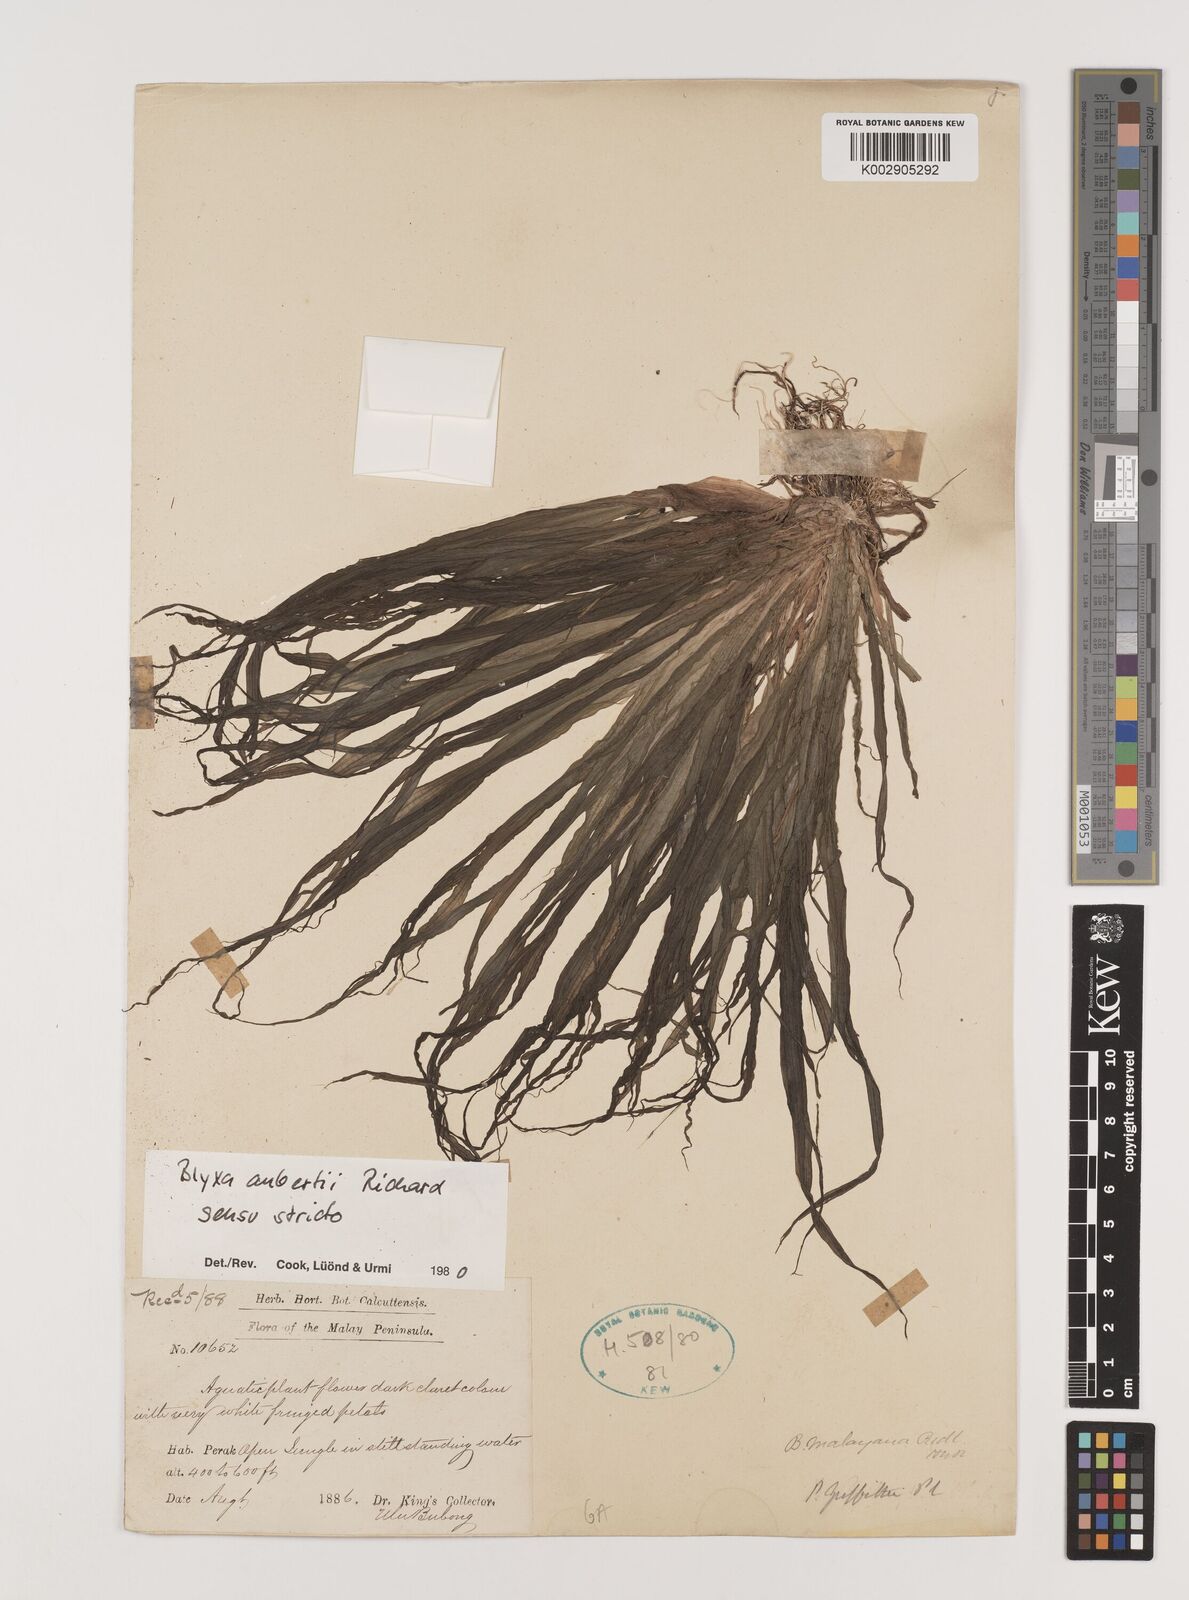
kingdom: Plantae
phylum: Tracheophyta
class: Liliopsida
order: Alismatales
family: Hydrocharitaceae
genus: Blyxa
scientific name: Blyxa aubertii
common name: Roundfruit blyxa
